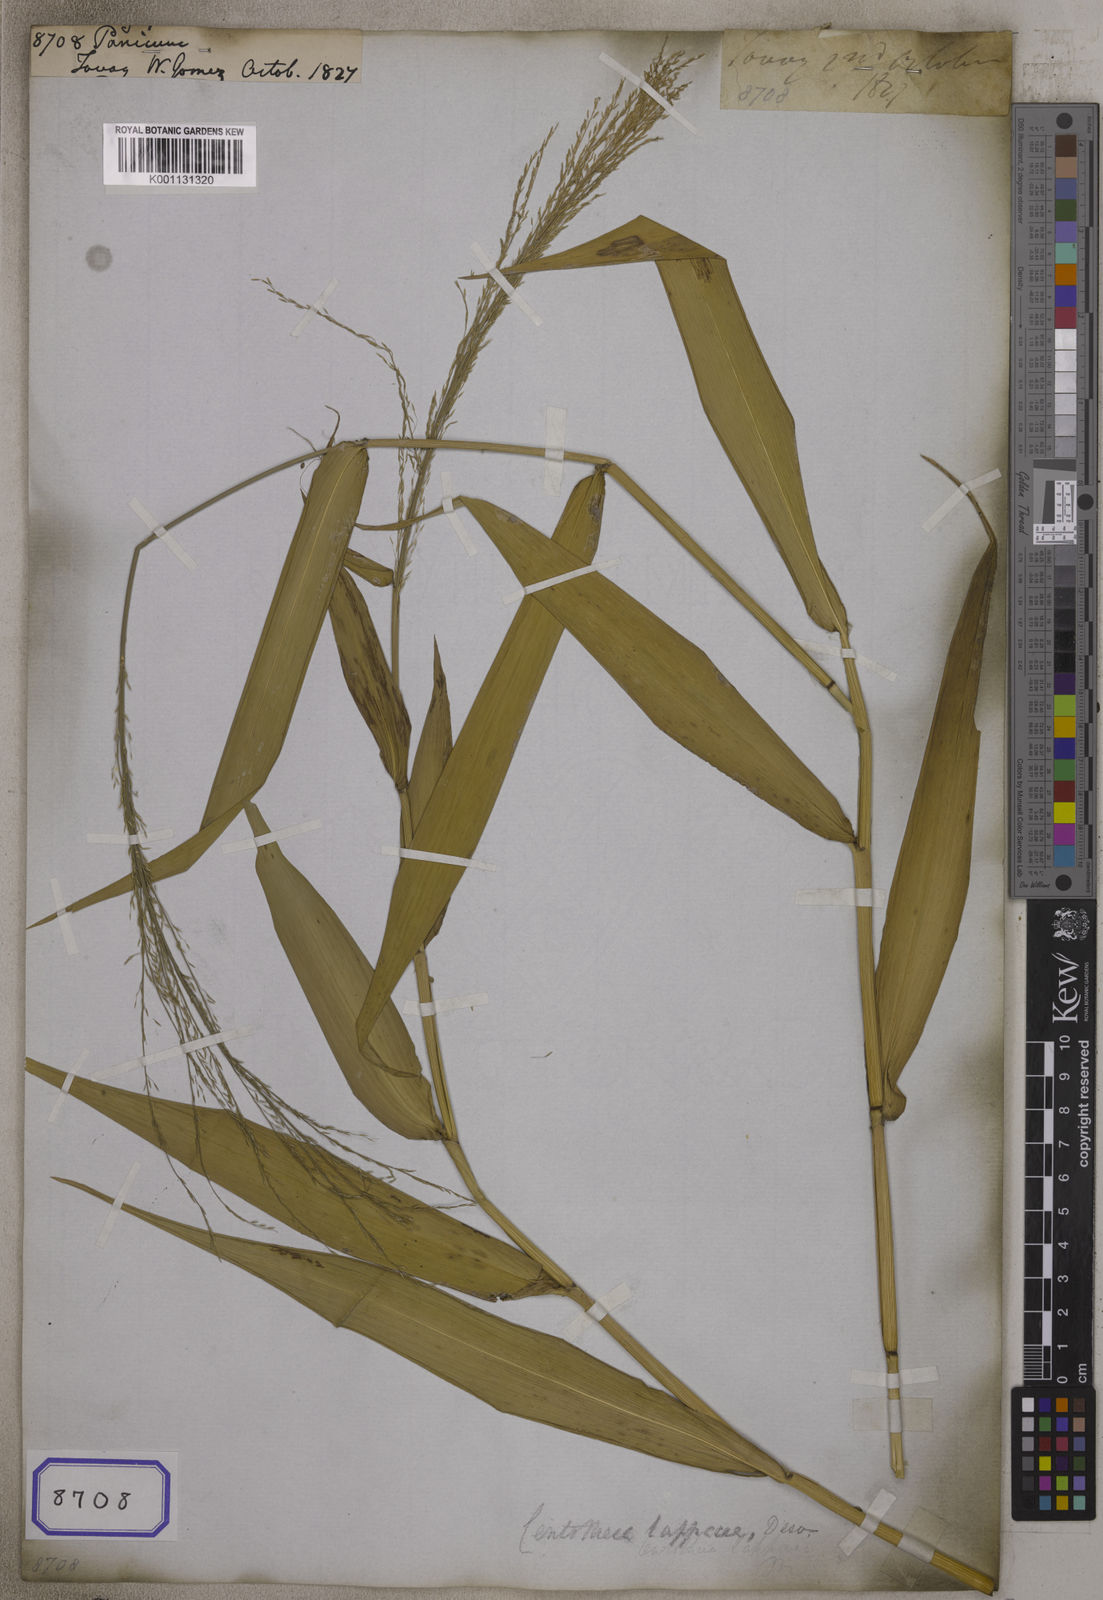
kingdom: Plantae
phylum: Tracheophyta
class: Liliopsida
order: Poales
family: Poaceae
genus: Panicum
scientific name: Panicum
